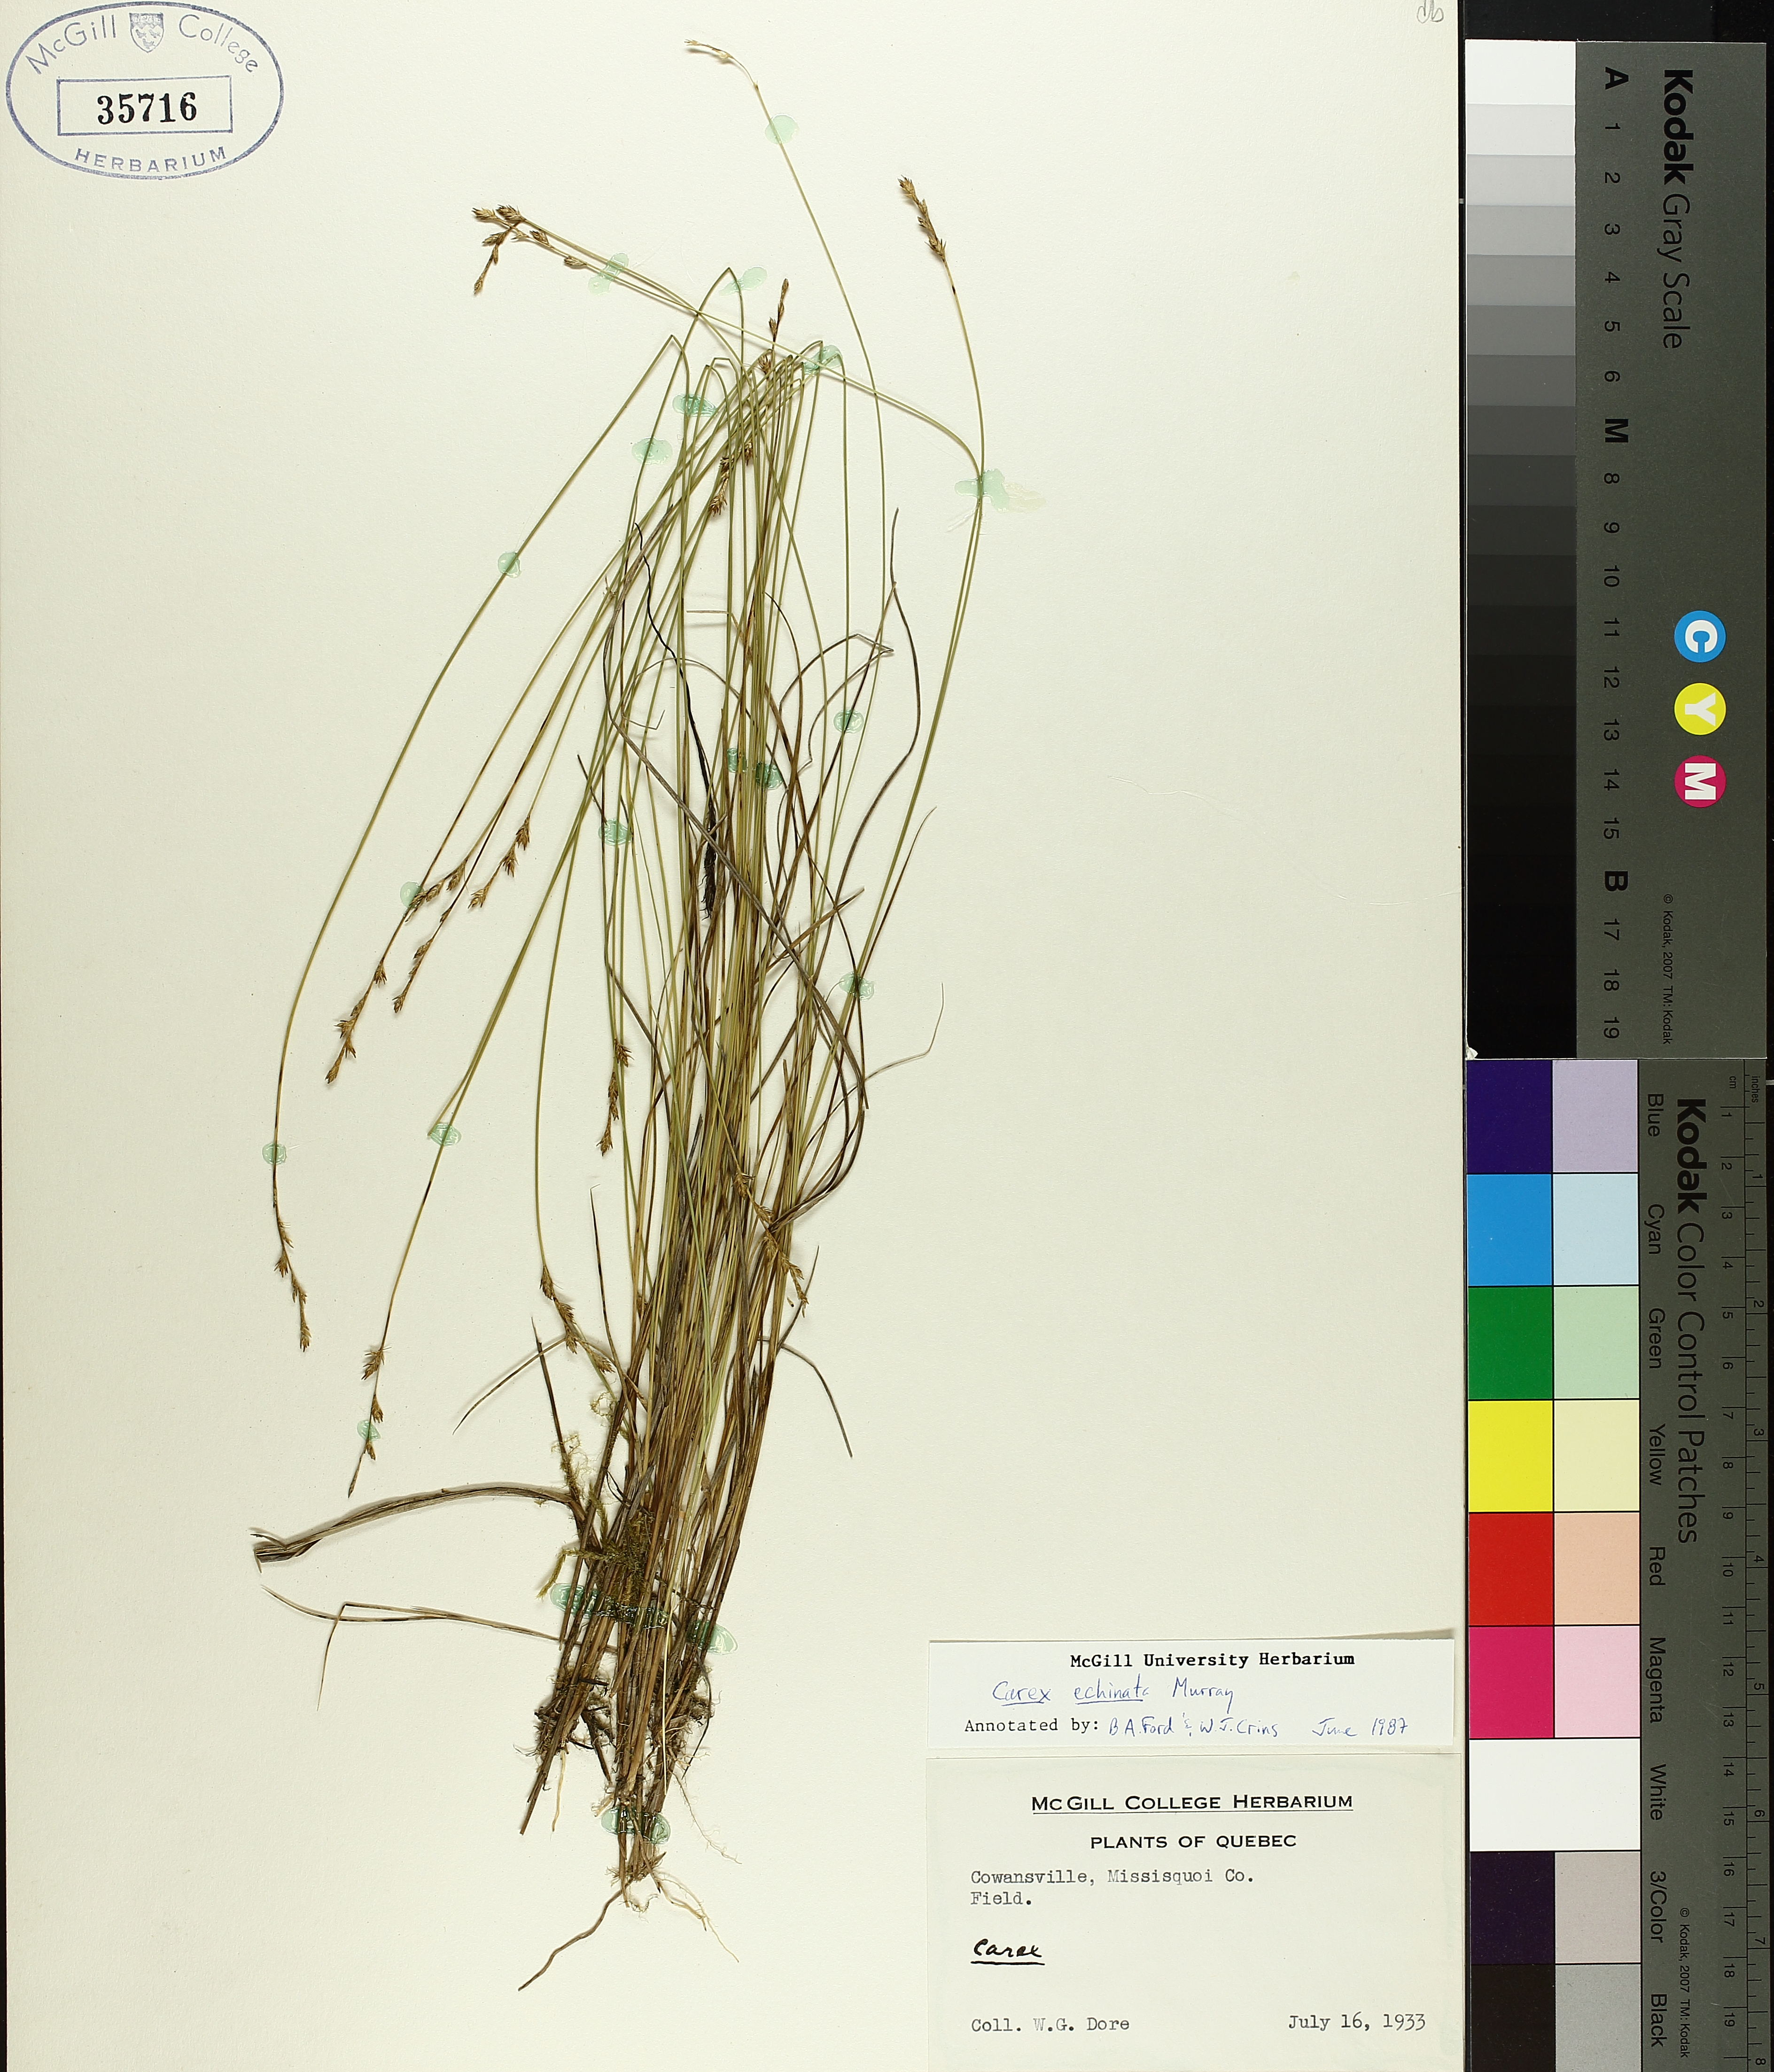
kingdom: Plantae
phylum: Tracheophyta
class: Liliopsida
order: Poales
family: Cyperaceae
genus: Carex
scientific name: Carex echinata
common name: Star sedge
